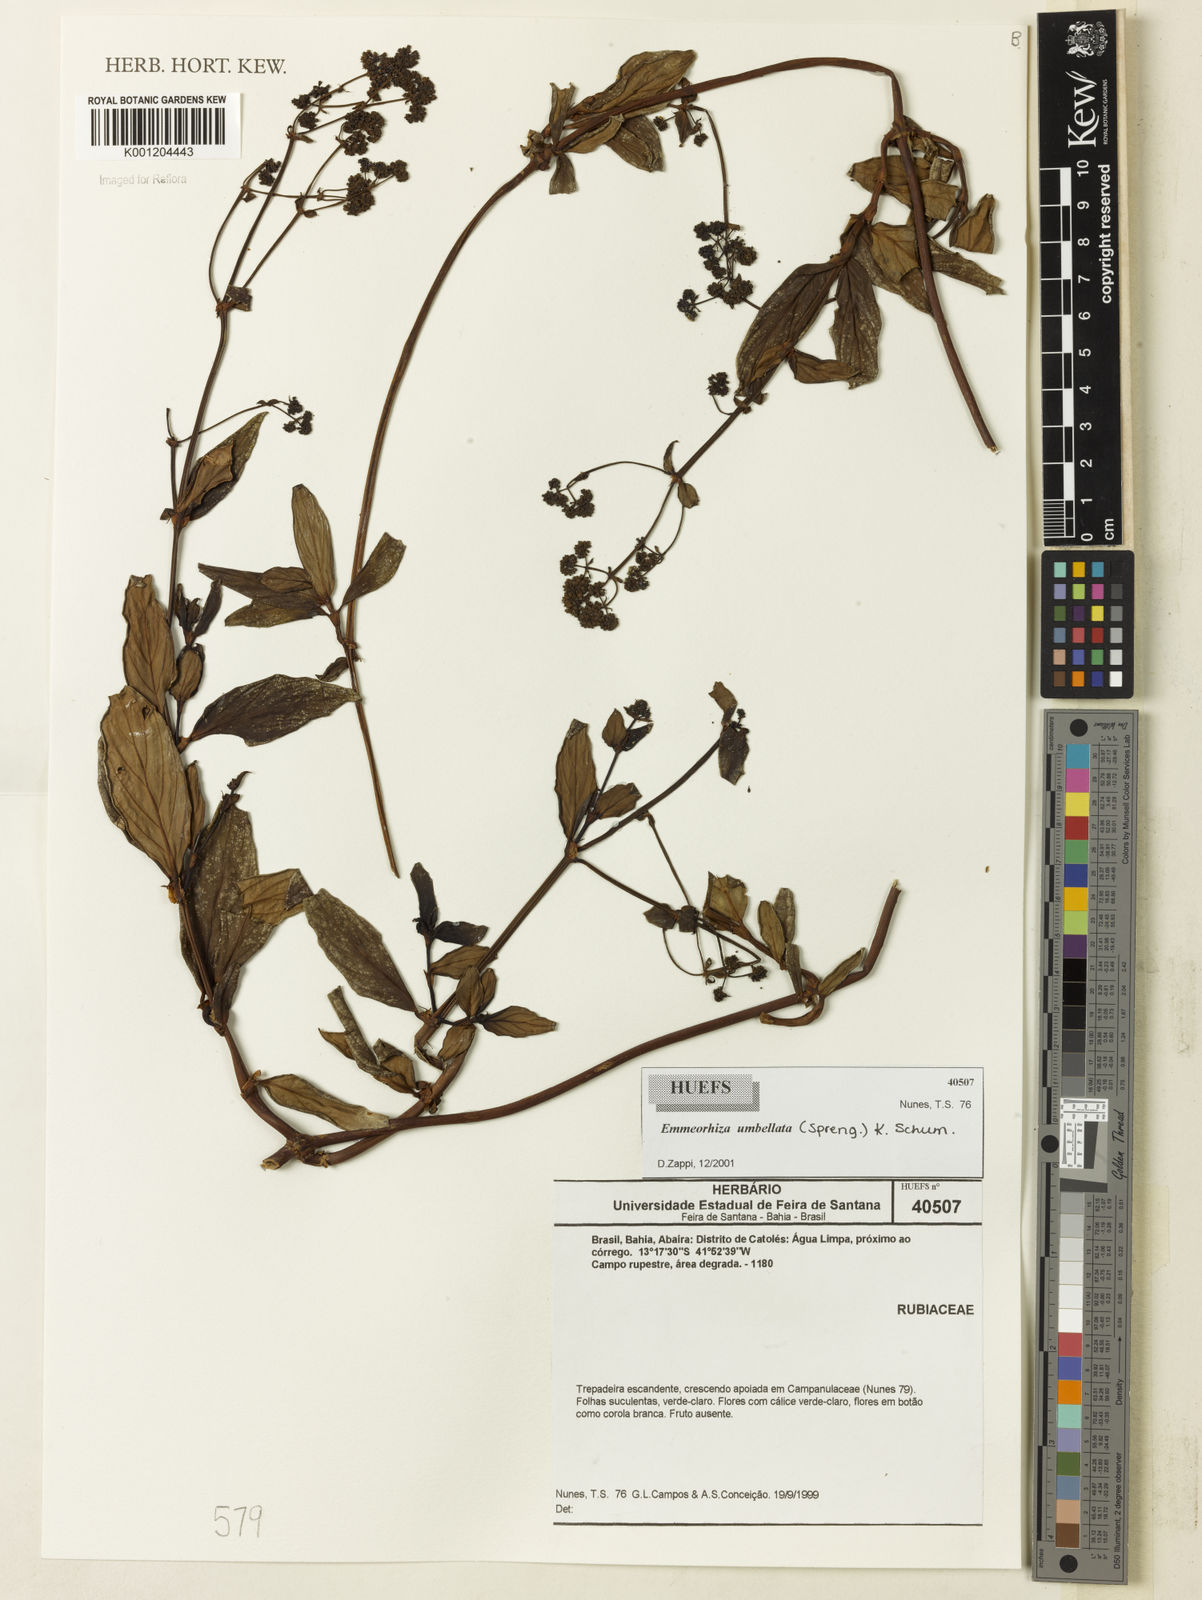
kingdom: Plantae
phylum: Tracheophyta
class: Magnoliopsida
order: Gentianales
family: Rubiaceae
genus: Emmeorhiza
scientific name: Emmeorhiza umbellata
